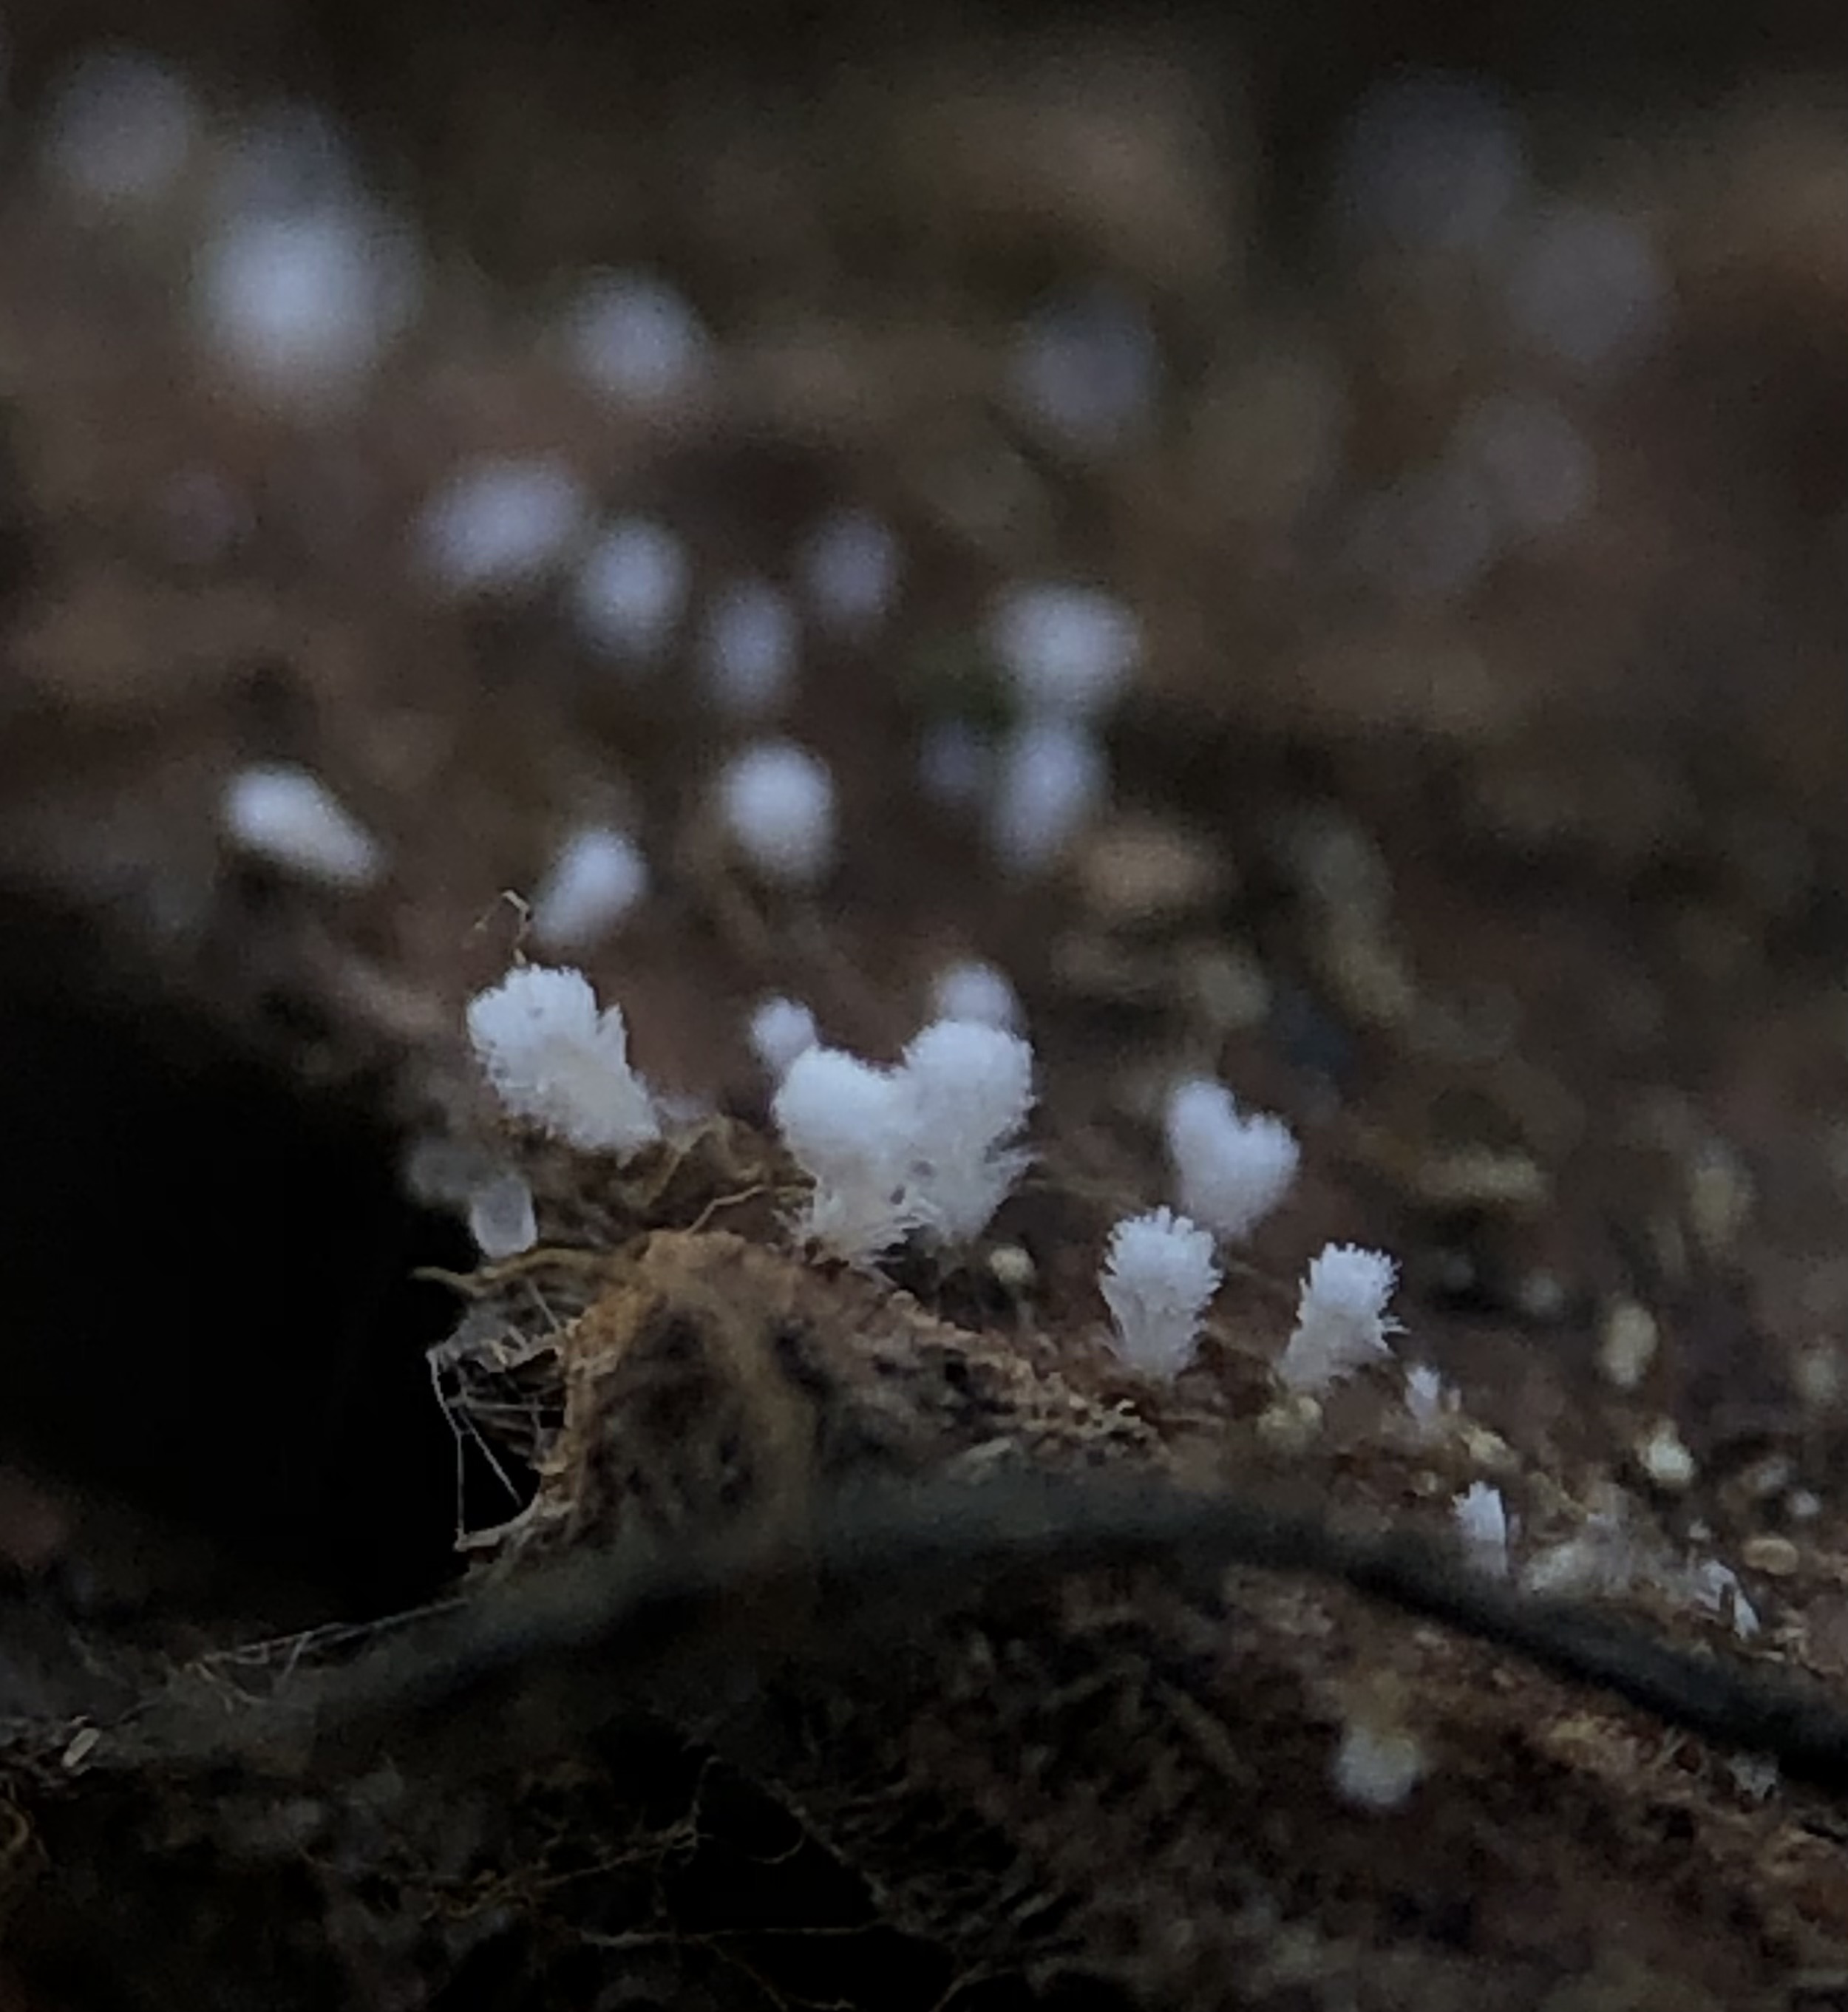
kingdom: Fungi
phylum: Ascomycota
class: Leotiomycetes
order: Helotiales
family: Lachnaceae
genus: Lachnum
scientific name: Lachnum virgineum
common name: jomfru-frynseskive
